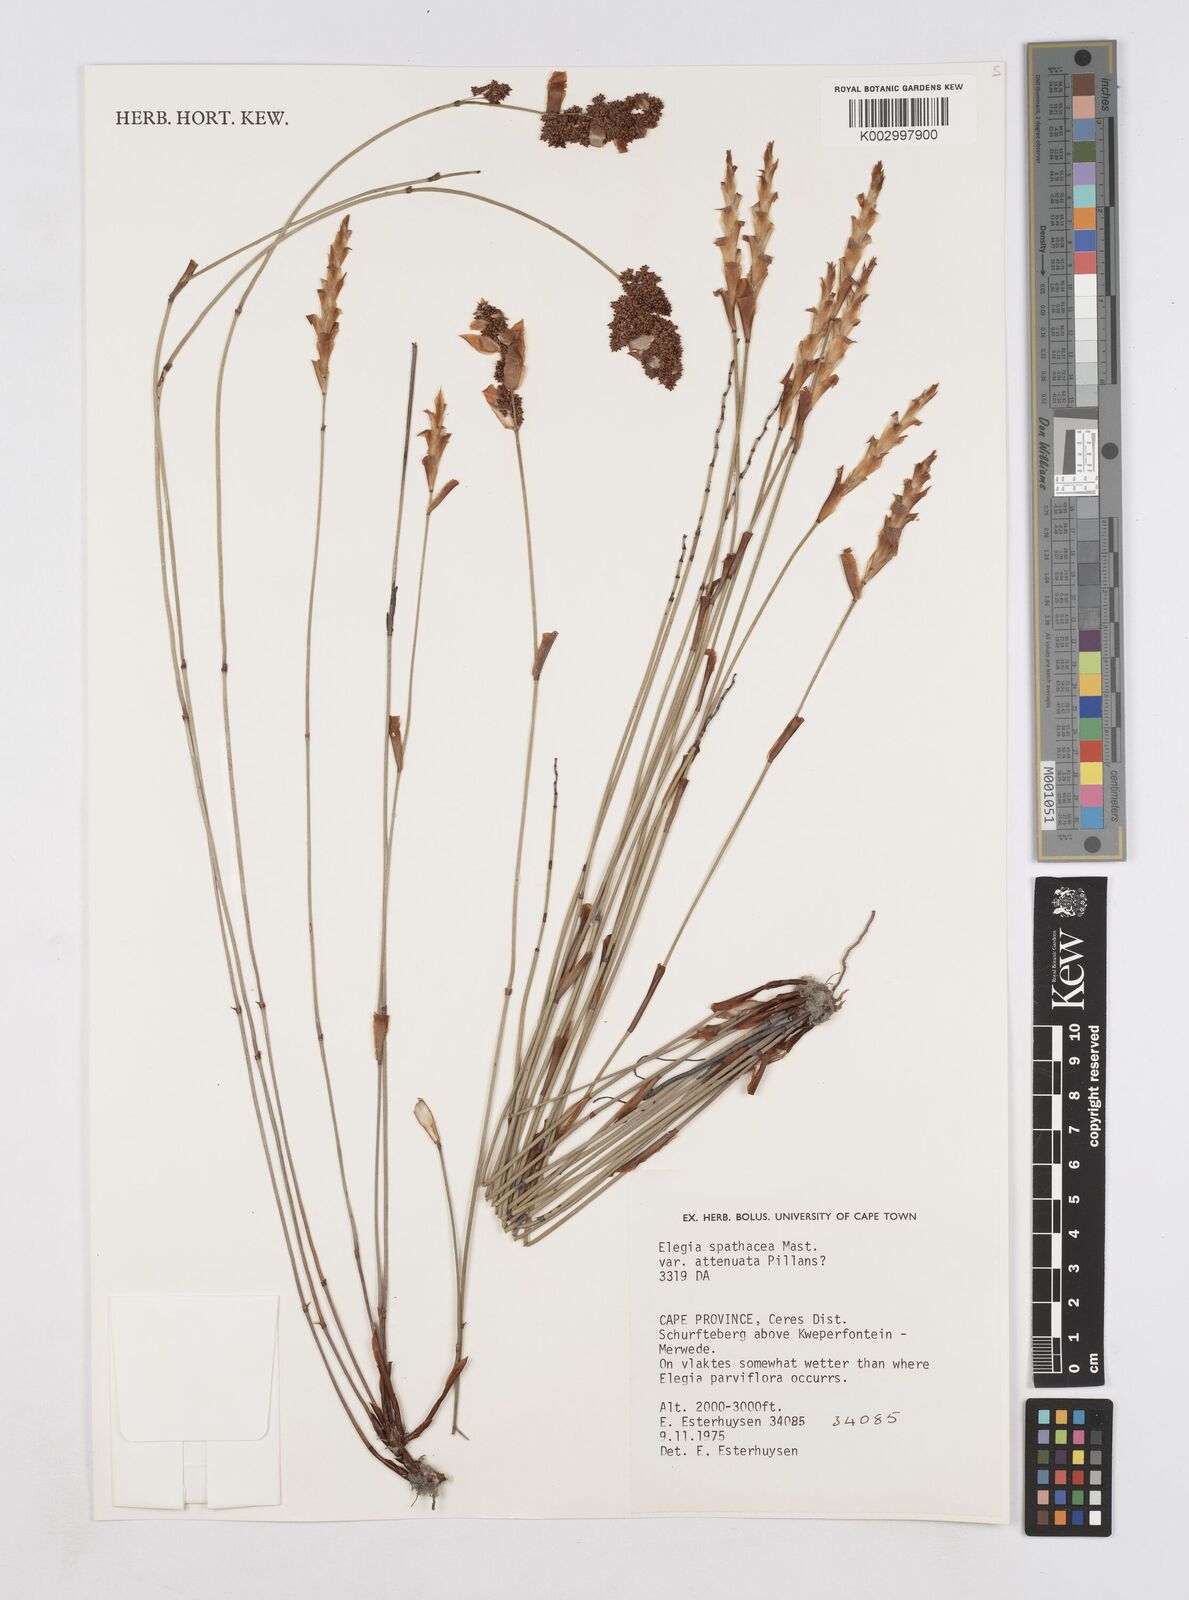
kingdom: Plantae
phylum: Tracheophyta
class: Liliopsida
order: Poales
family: Restionaceae
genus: Elegia
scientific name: Elegia rigida
